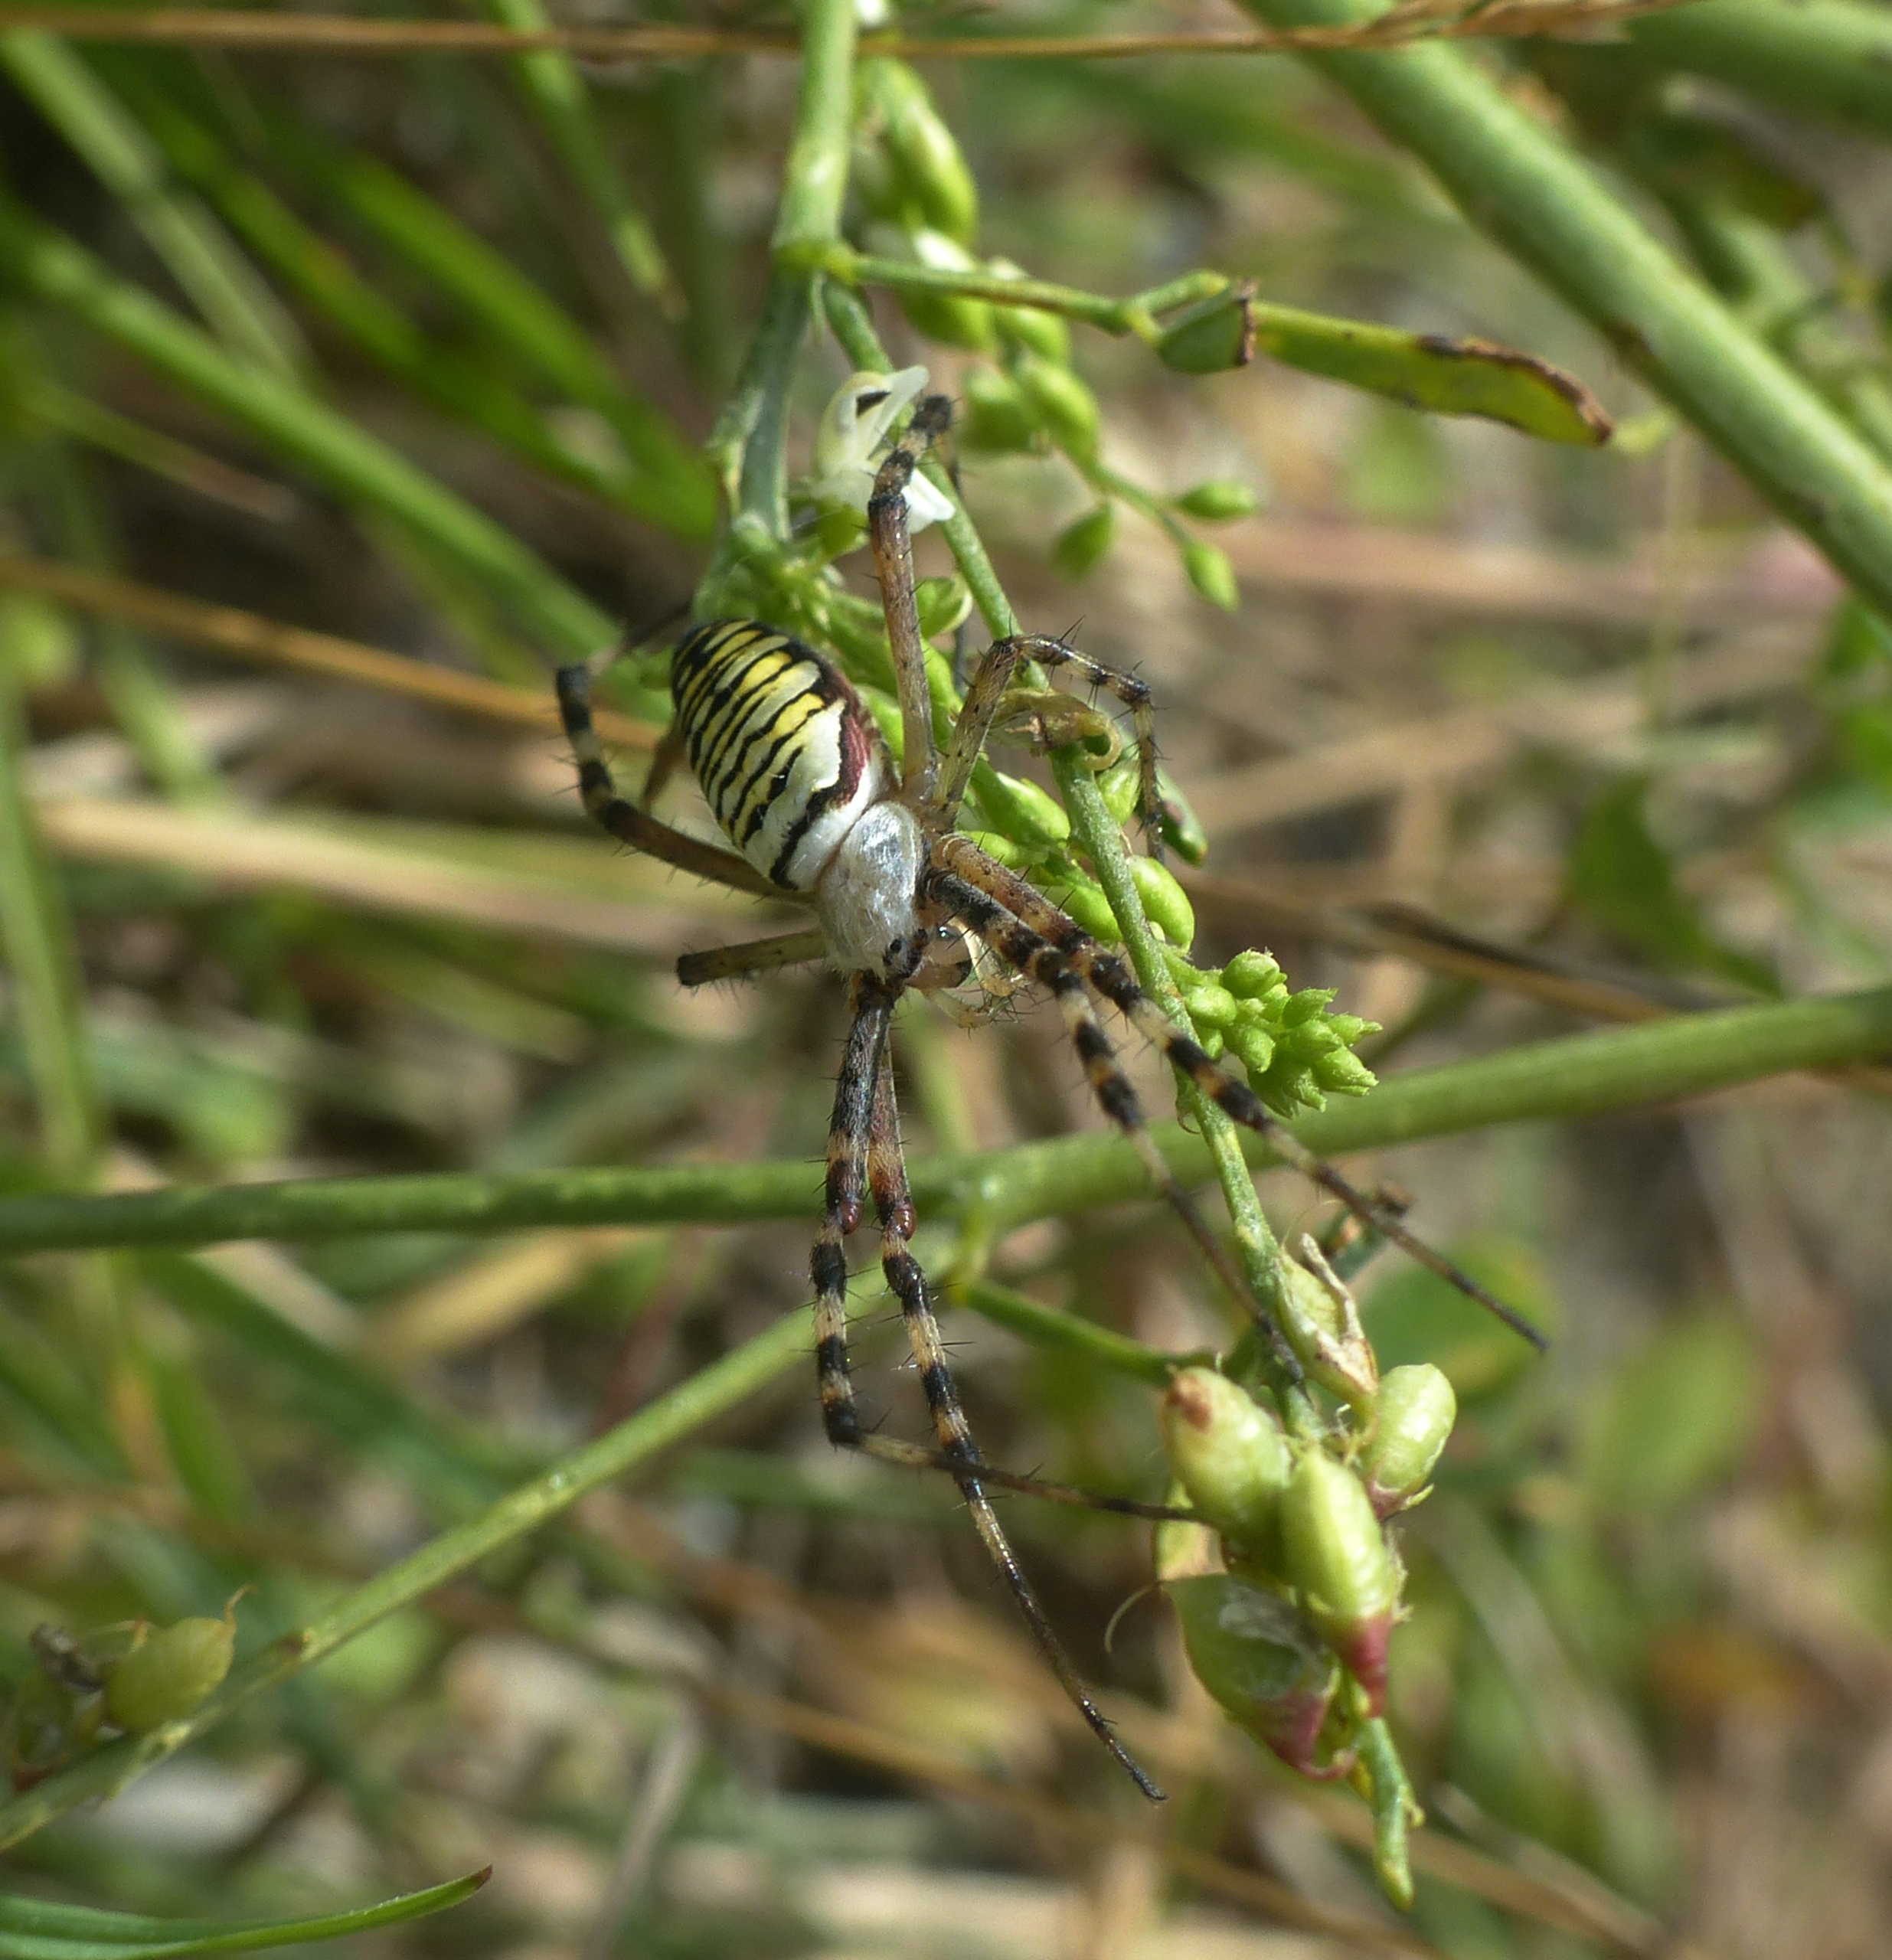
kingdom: Animalia
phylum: Arthropoda
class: Arachnida
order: Araneae
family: Araneidae
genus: Argiope
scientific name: Argiope bruennichi
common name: Hvepseedderkop
